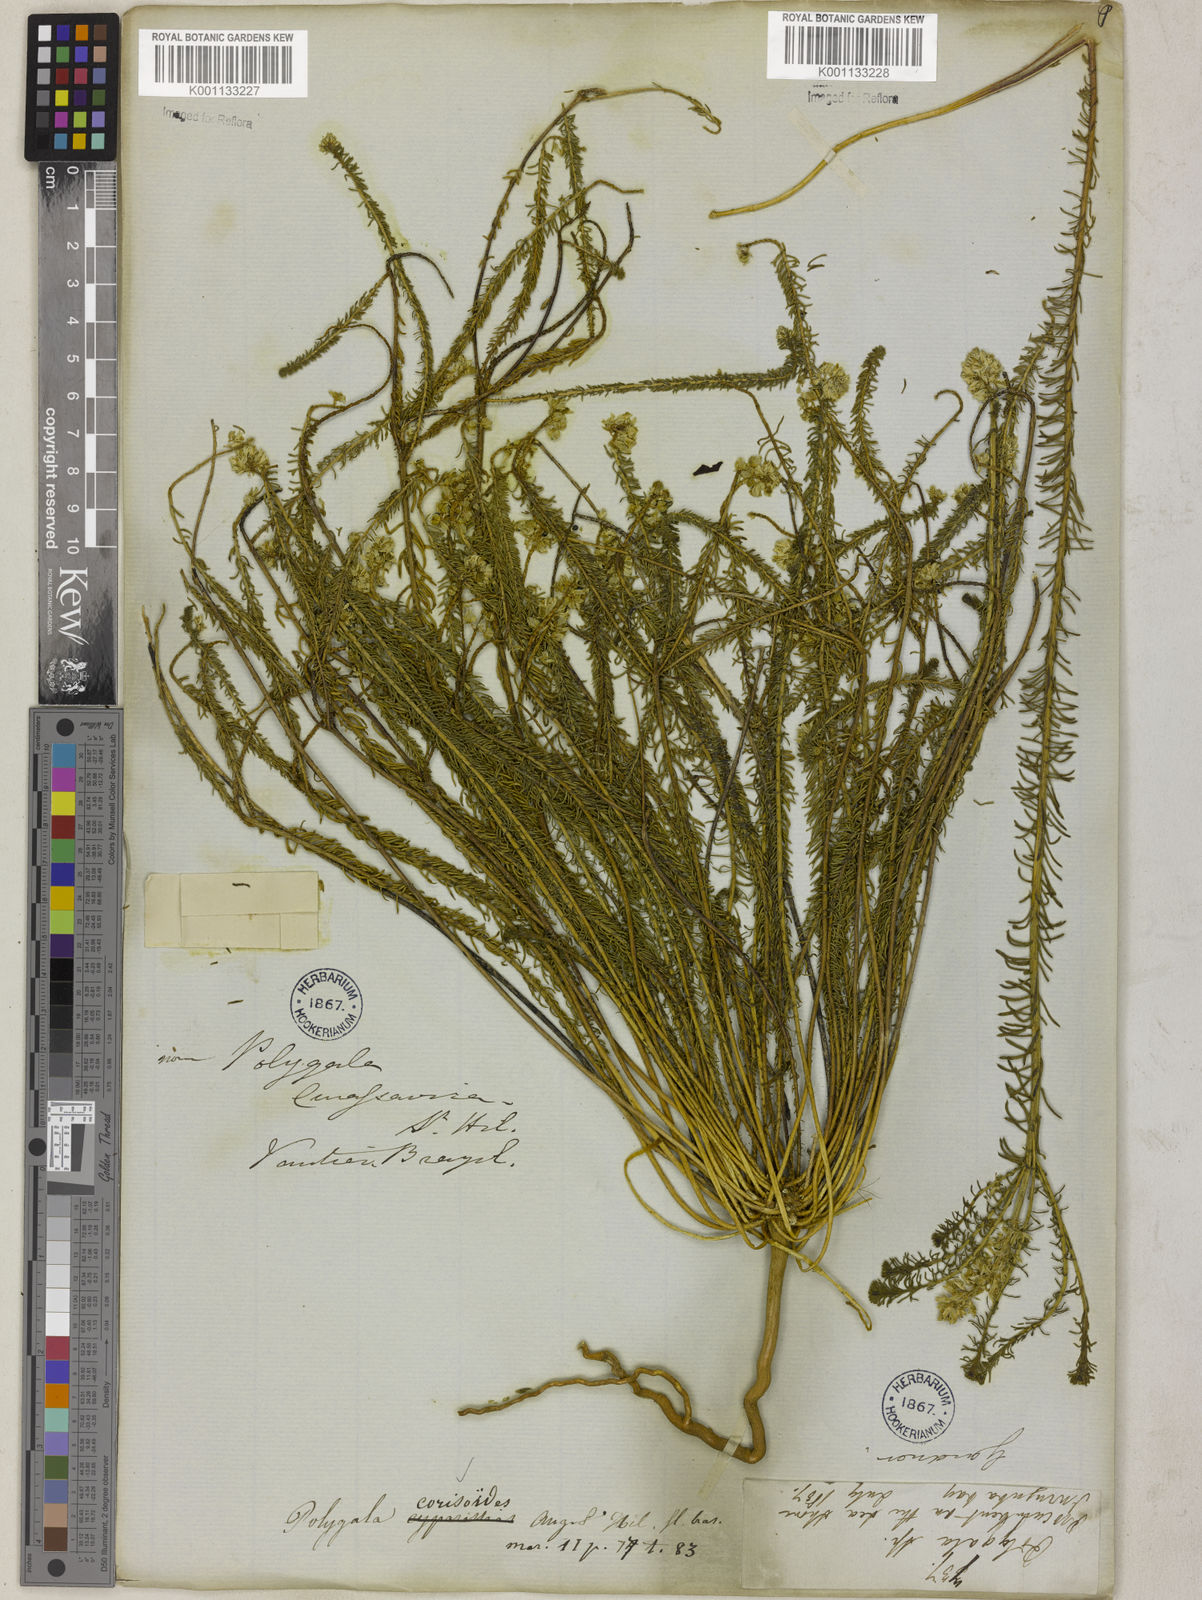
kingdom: Plantae
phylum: Tracheophyta
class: Magnoliopsida
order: Fabales
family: Polygalaceae
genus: Polygala
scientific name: Polygala cyparissias
